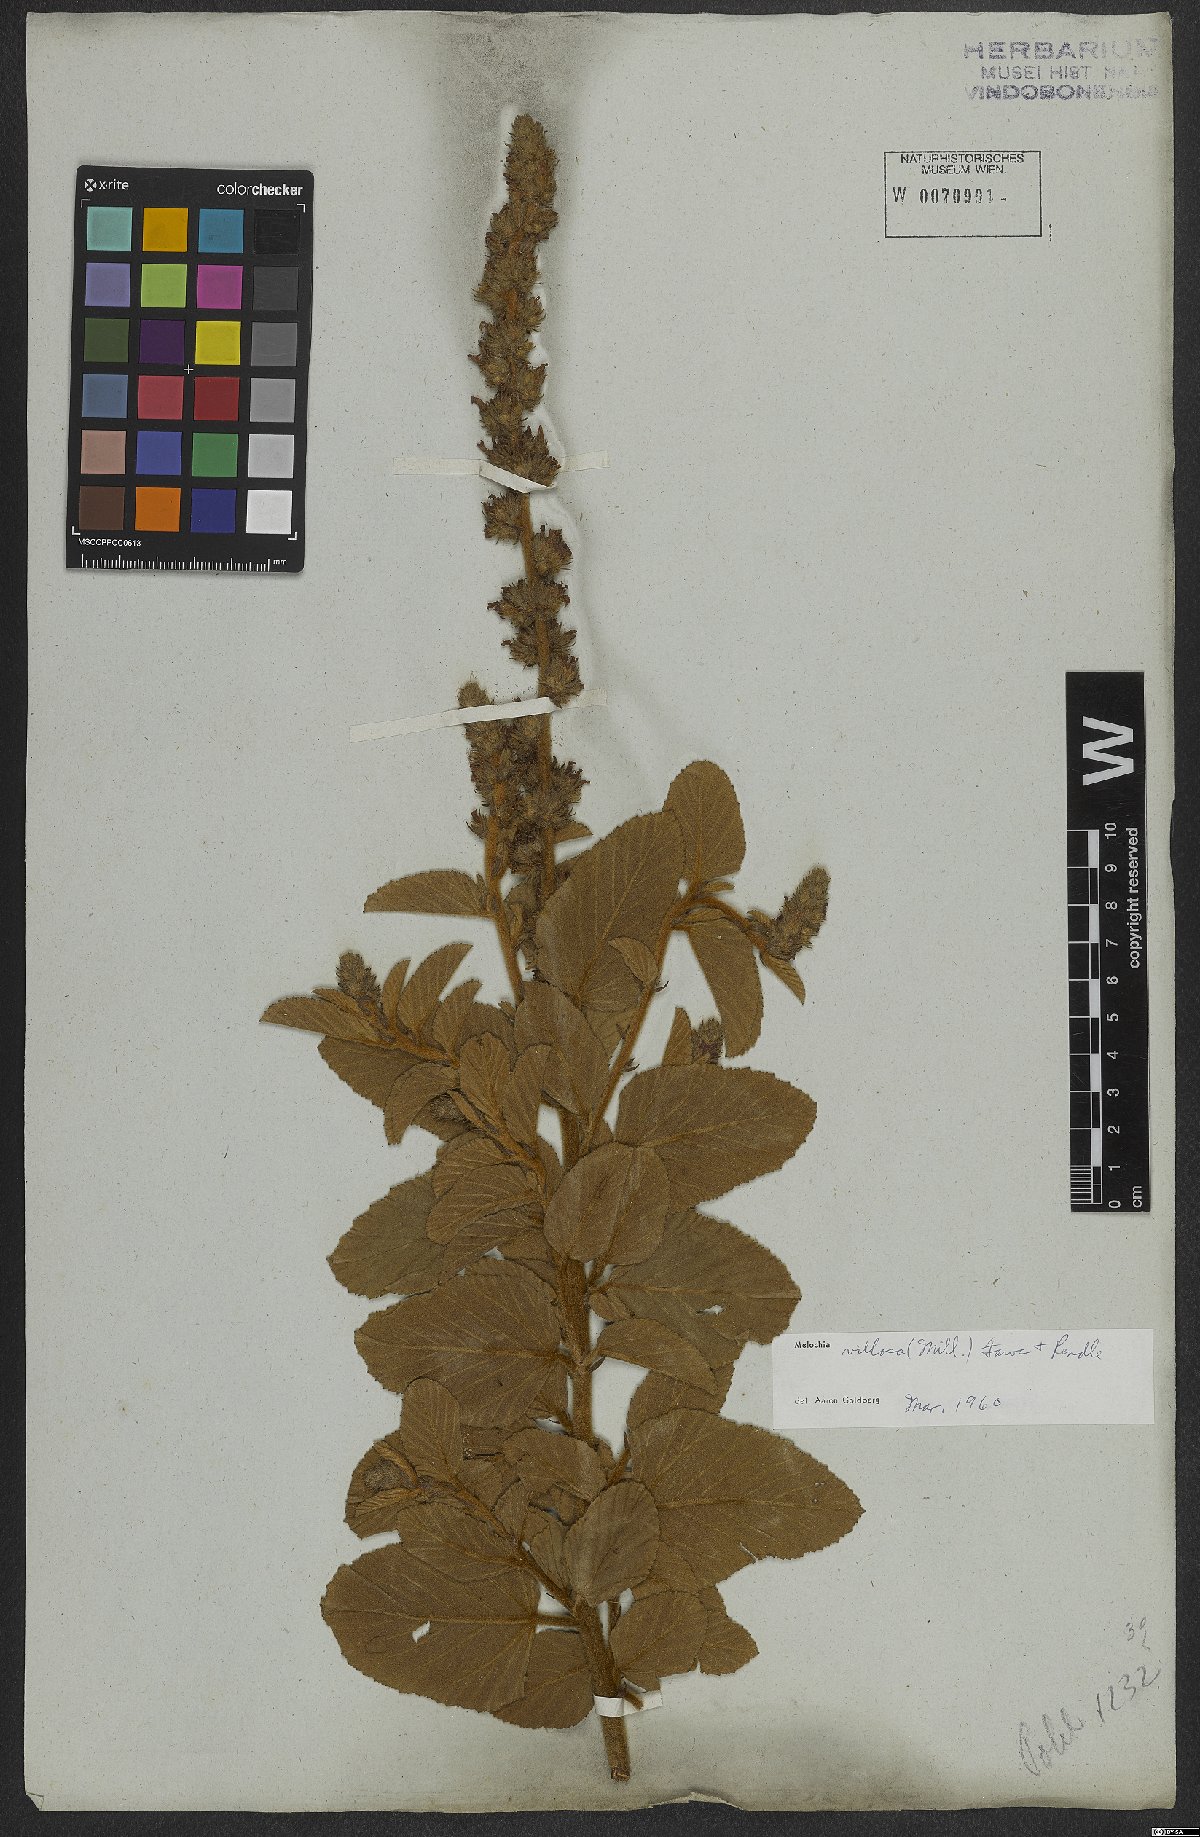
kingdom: Plantae
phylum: Tracheophyta
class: Magnoliopsida
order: Malvales
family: Malvaceae
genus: Melochia
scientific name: Melochia spicata
